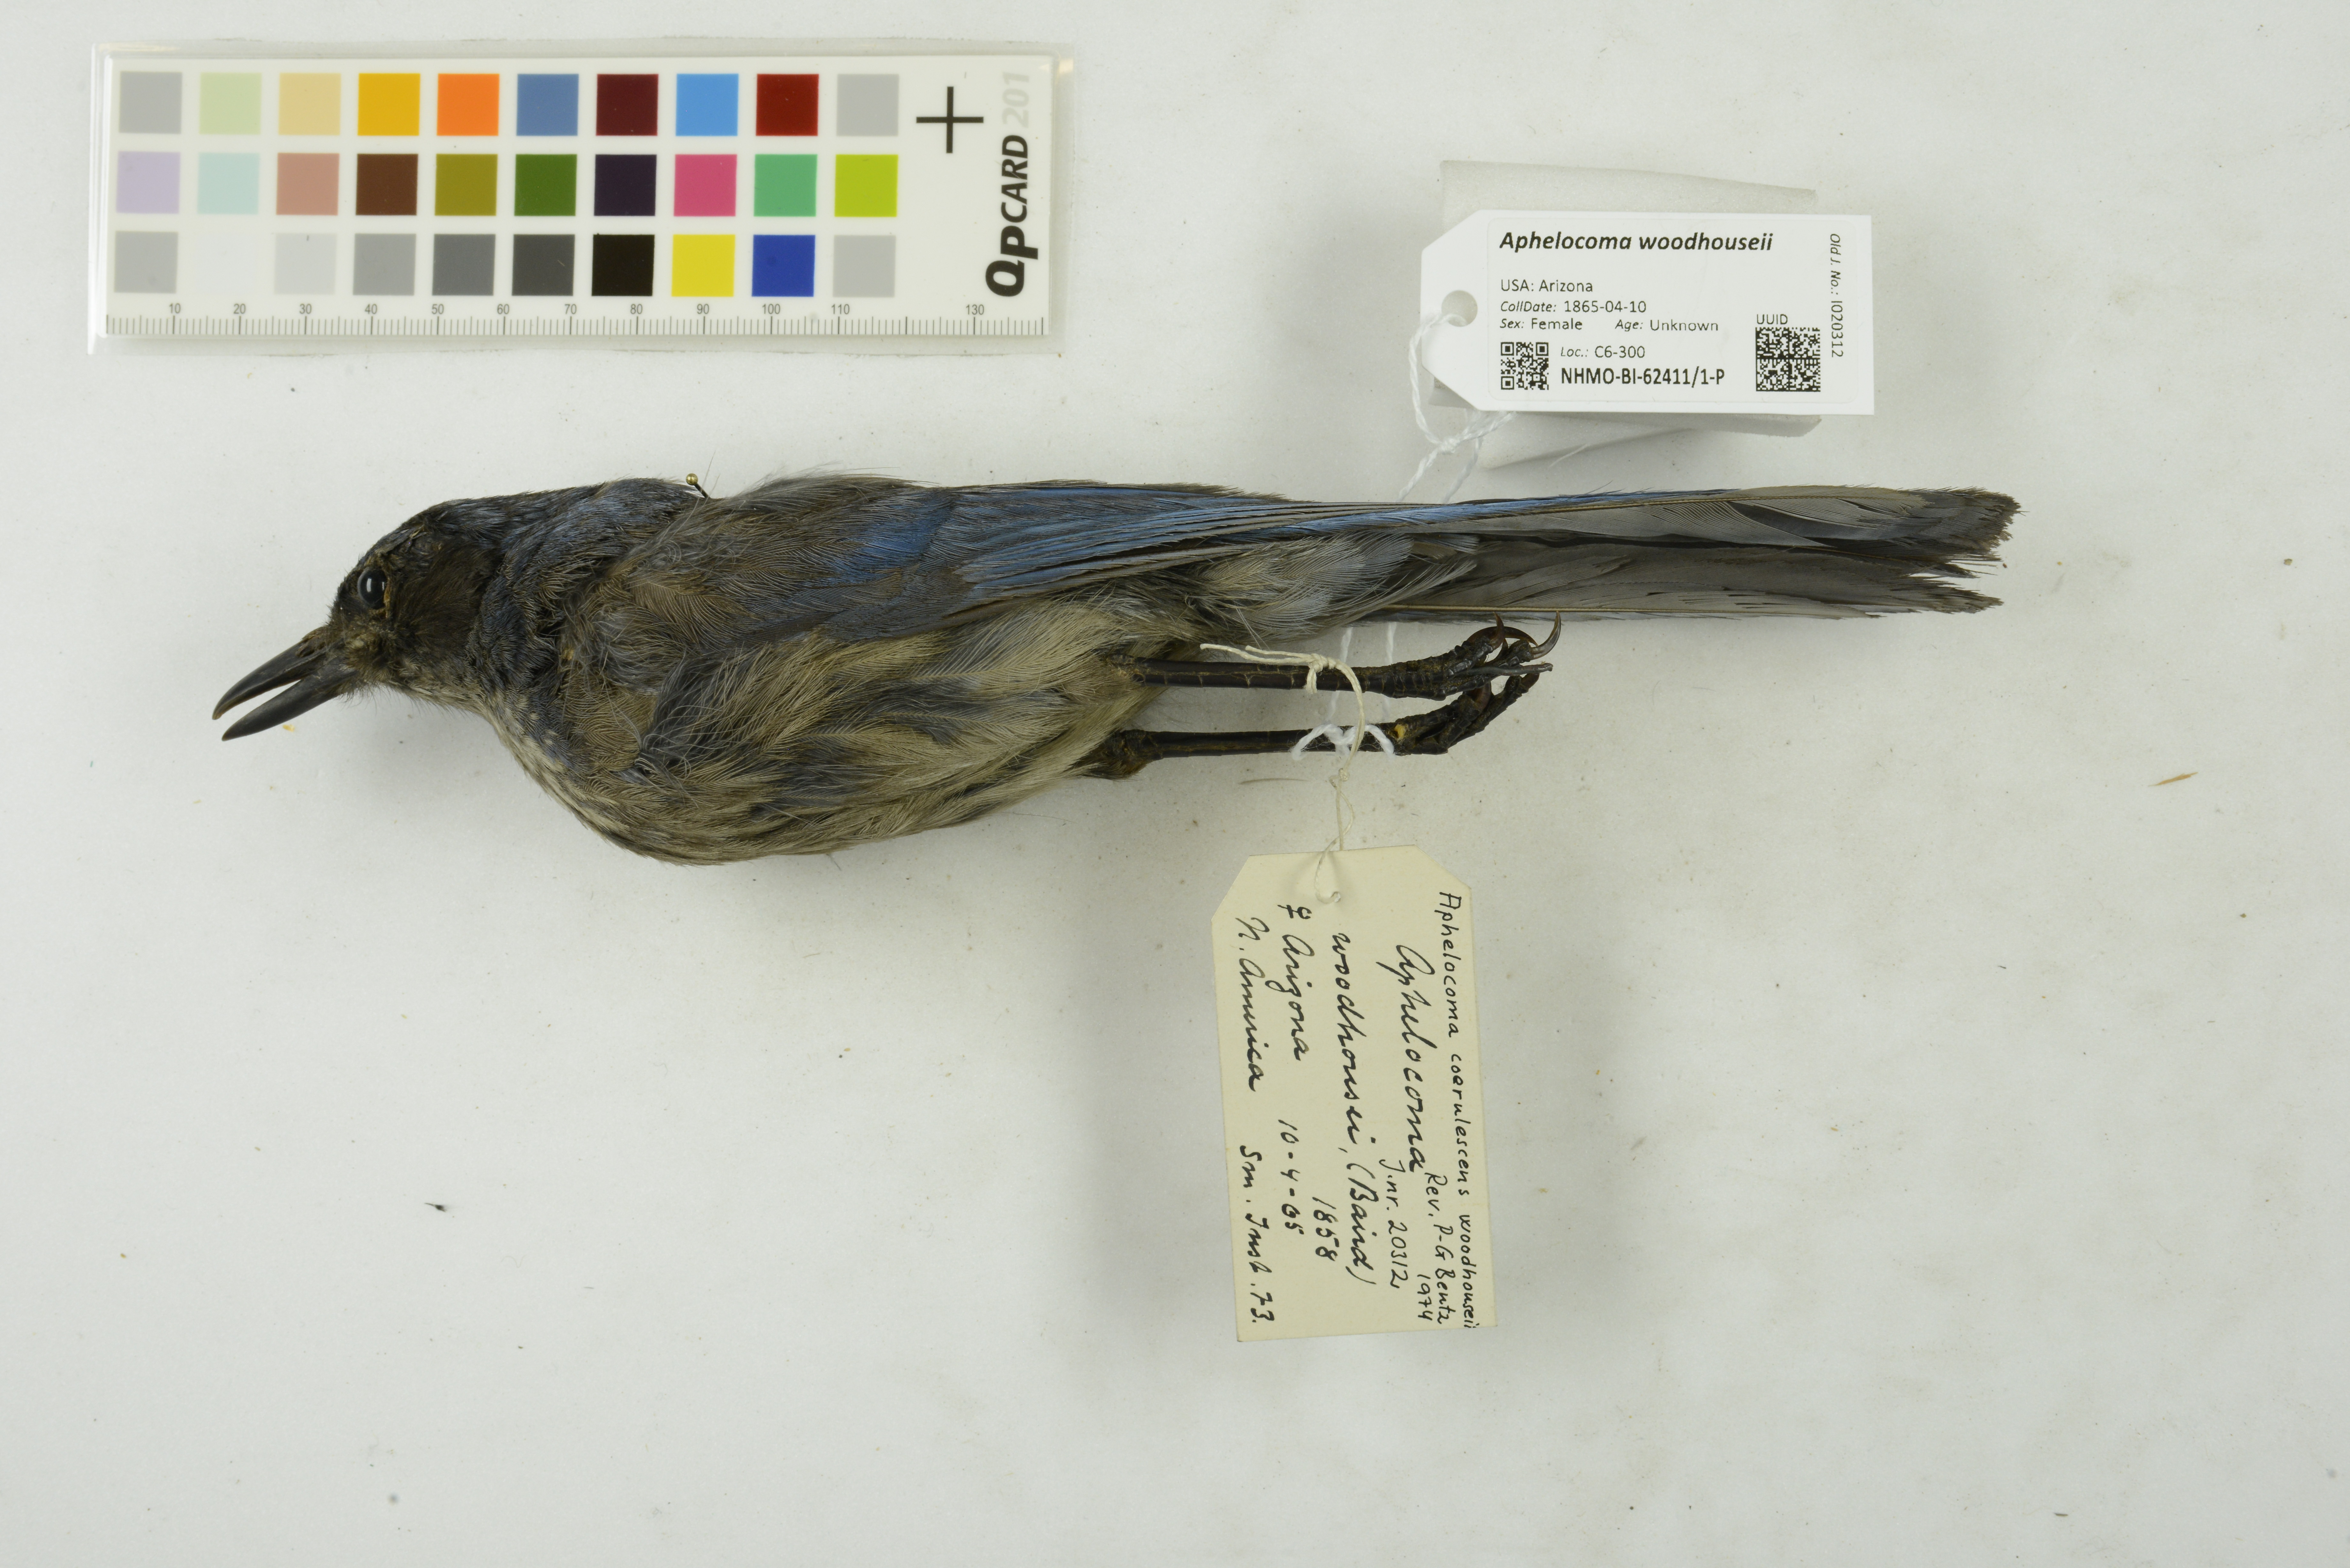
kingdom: Animalia
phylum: Chordata
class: Aves
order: Passeriformes
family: Corvidae
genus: Aphelocoma
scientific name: Aphelocoma woodhouseii
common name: Woodhouse's scrub-jay
